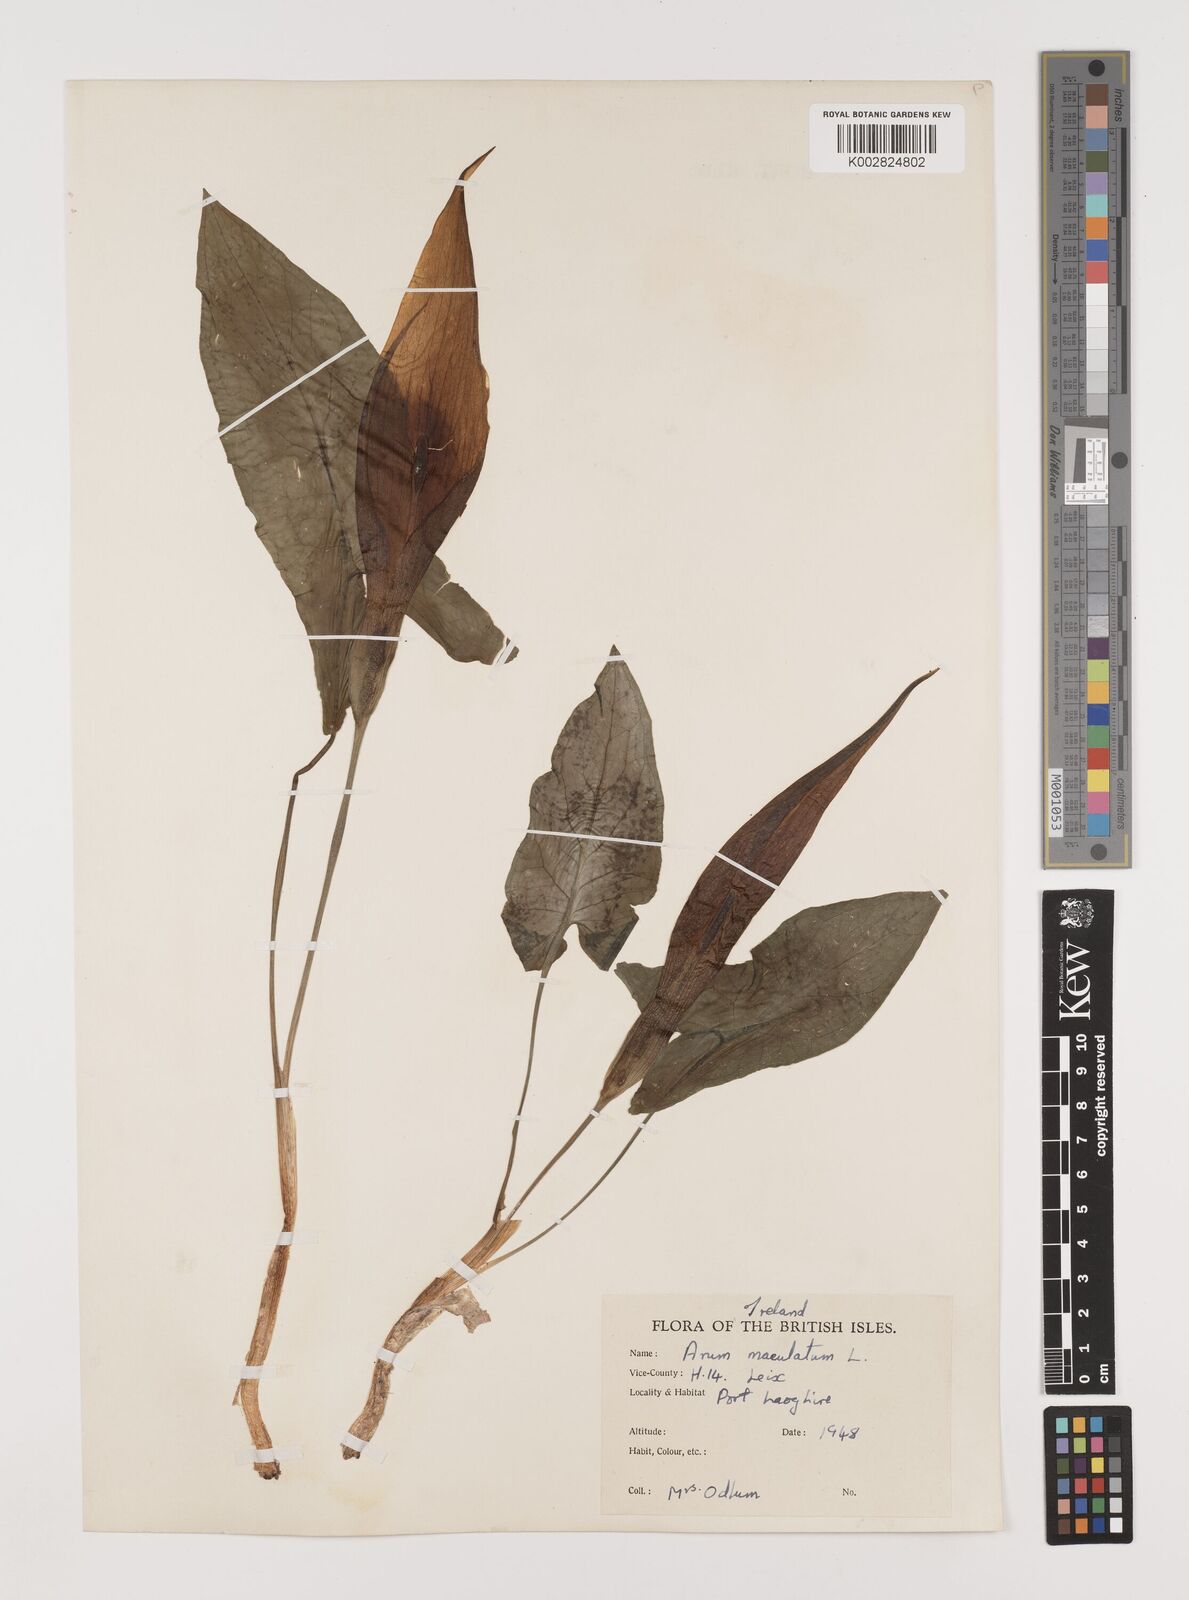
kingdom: Plantae
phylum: Tracheophyta
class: Liliopsida
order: Alismatales
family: Araceae
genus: Arum
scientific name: Arum maculatum
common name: Lords-and-ladies
